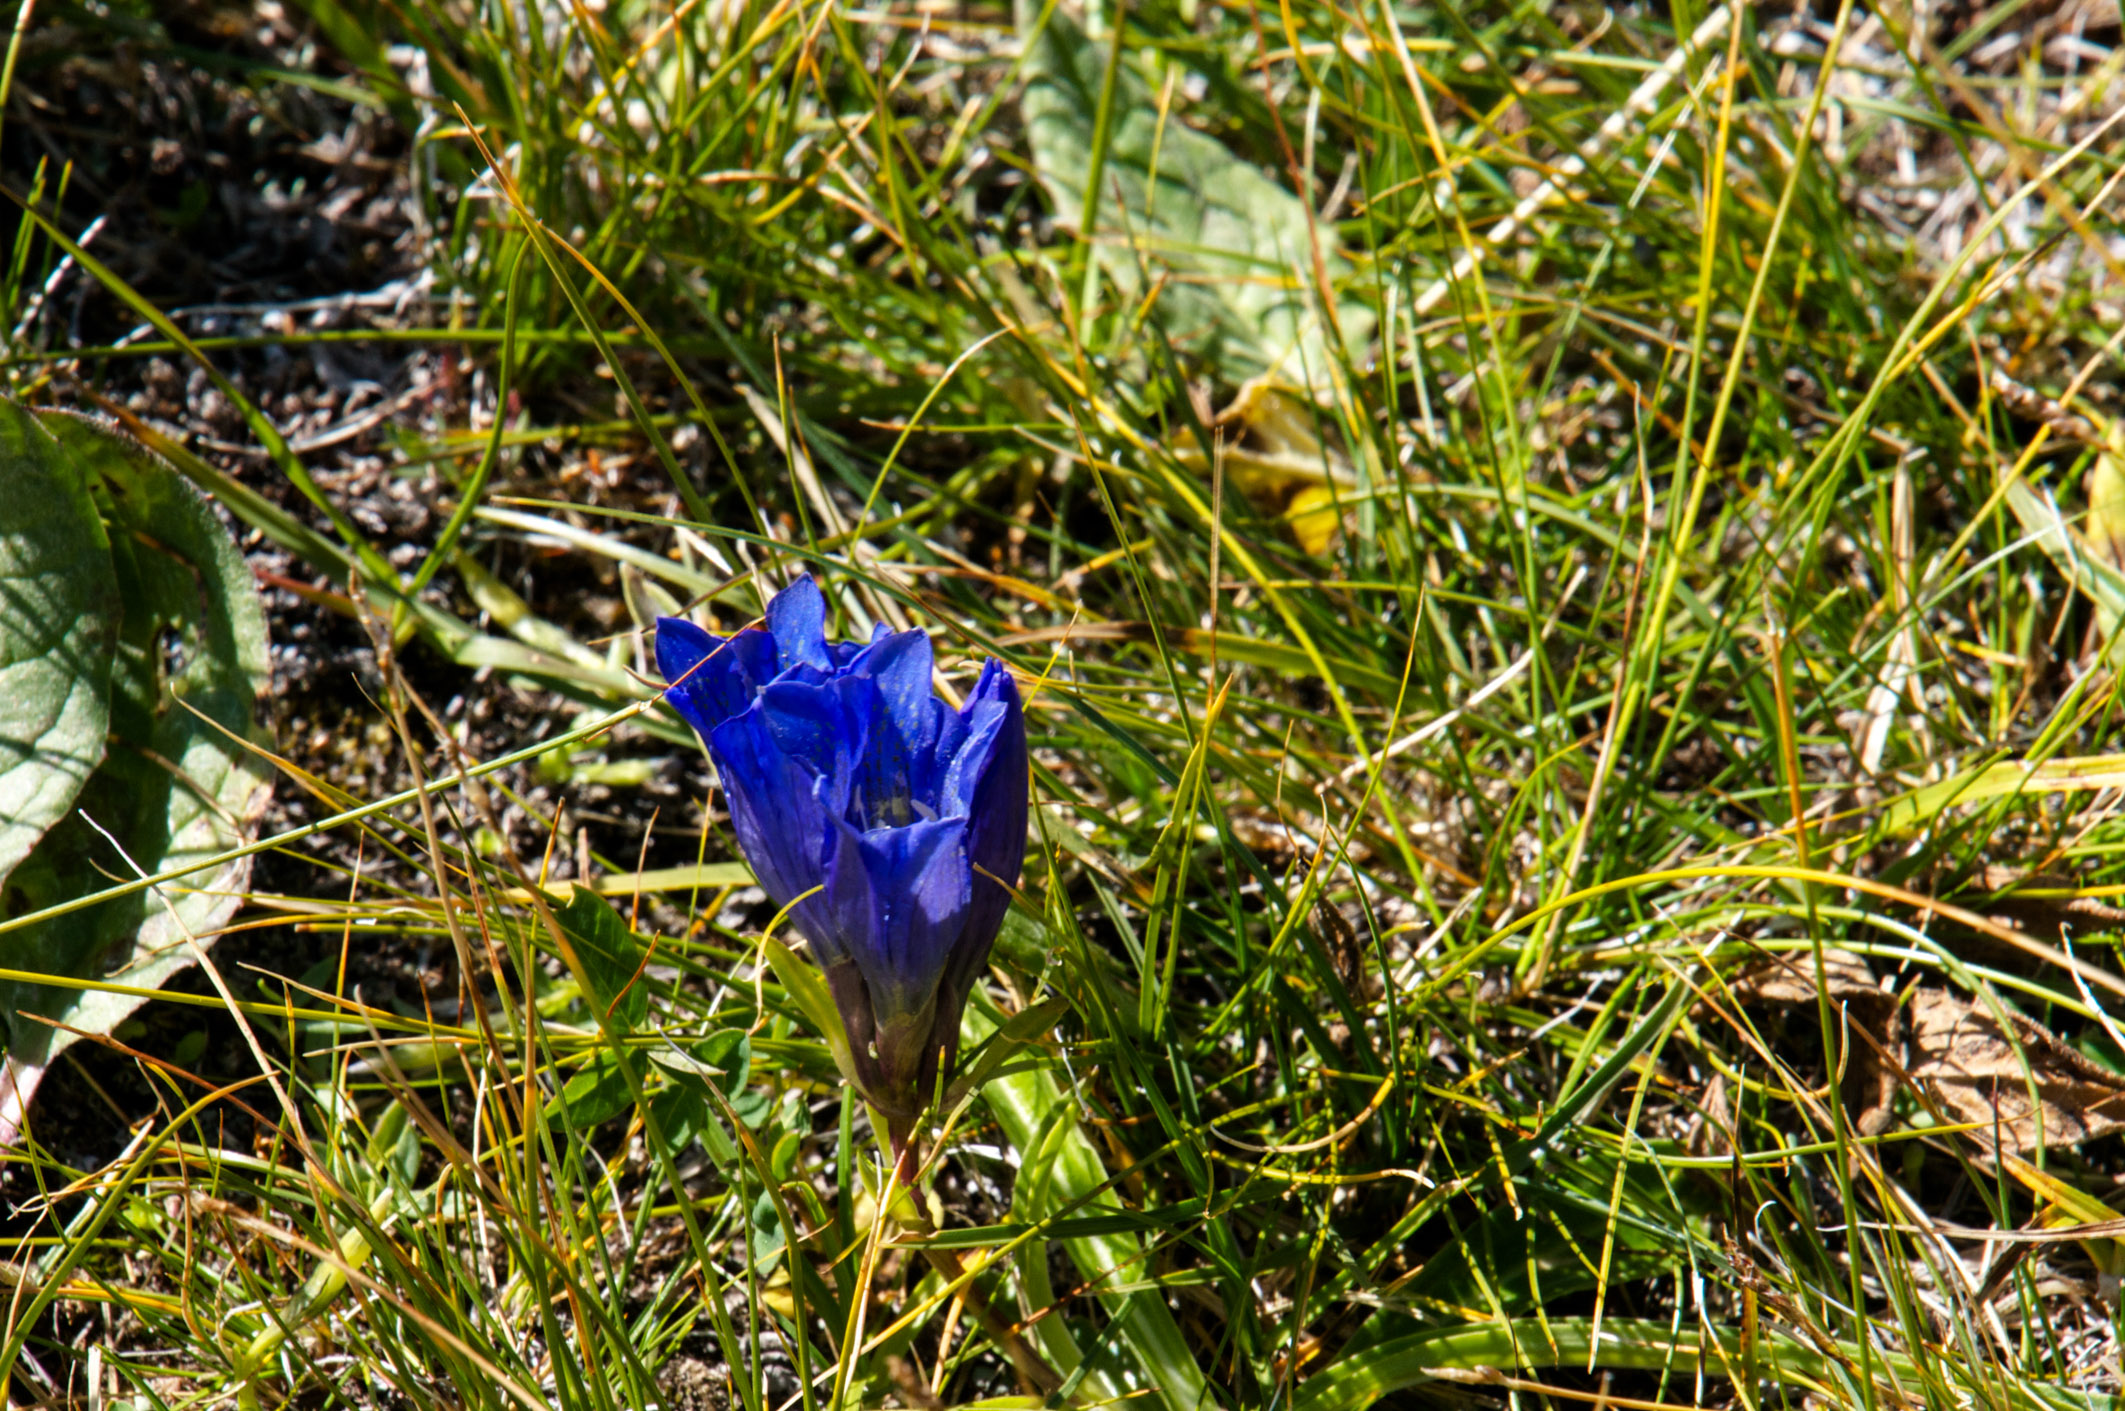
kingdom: Plantae
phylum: Tracheophyta
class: Magnoliopsida
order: Gentianales
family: Gentianaceae
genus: Gentiana
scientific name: Gentiana decumbens
